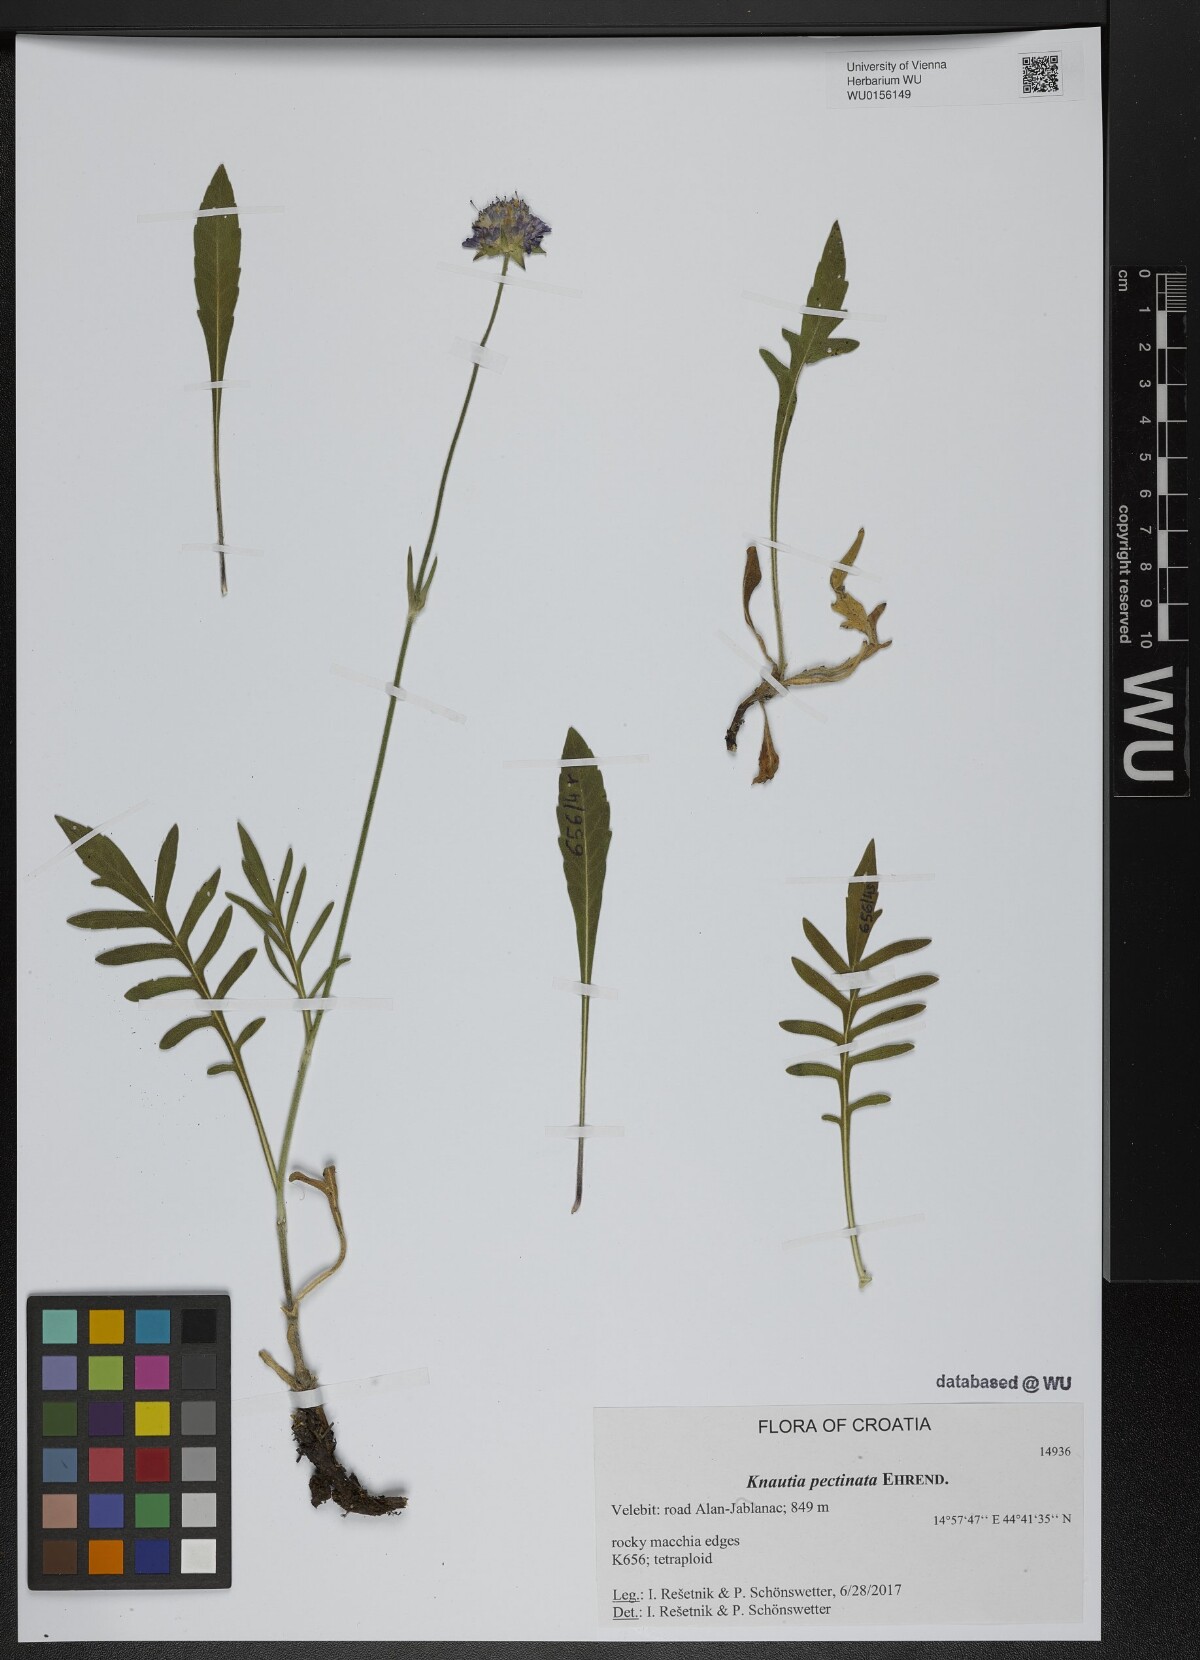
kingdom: Plantae
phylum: Tracheophyta
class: Magnoliopsida
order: Dipsacales
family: Caprifoliaceae
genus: Knautia
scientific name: Knautia pectinata
